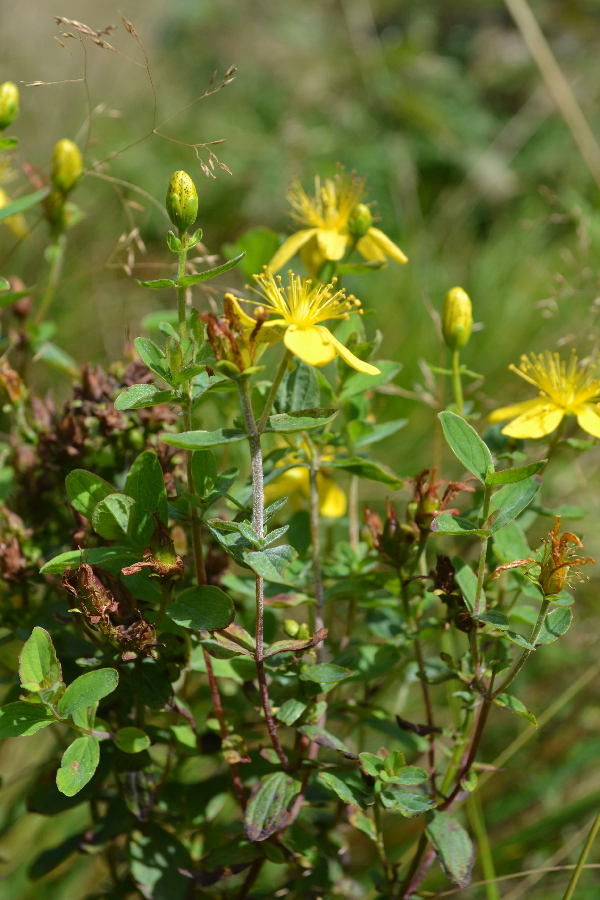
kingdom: Plantae
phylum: Tracheophyta
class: Magnoliopsida
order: Malpighiales
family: Hypericaceae
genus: Hypericum
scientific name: Hypericum perforatum
